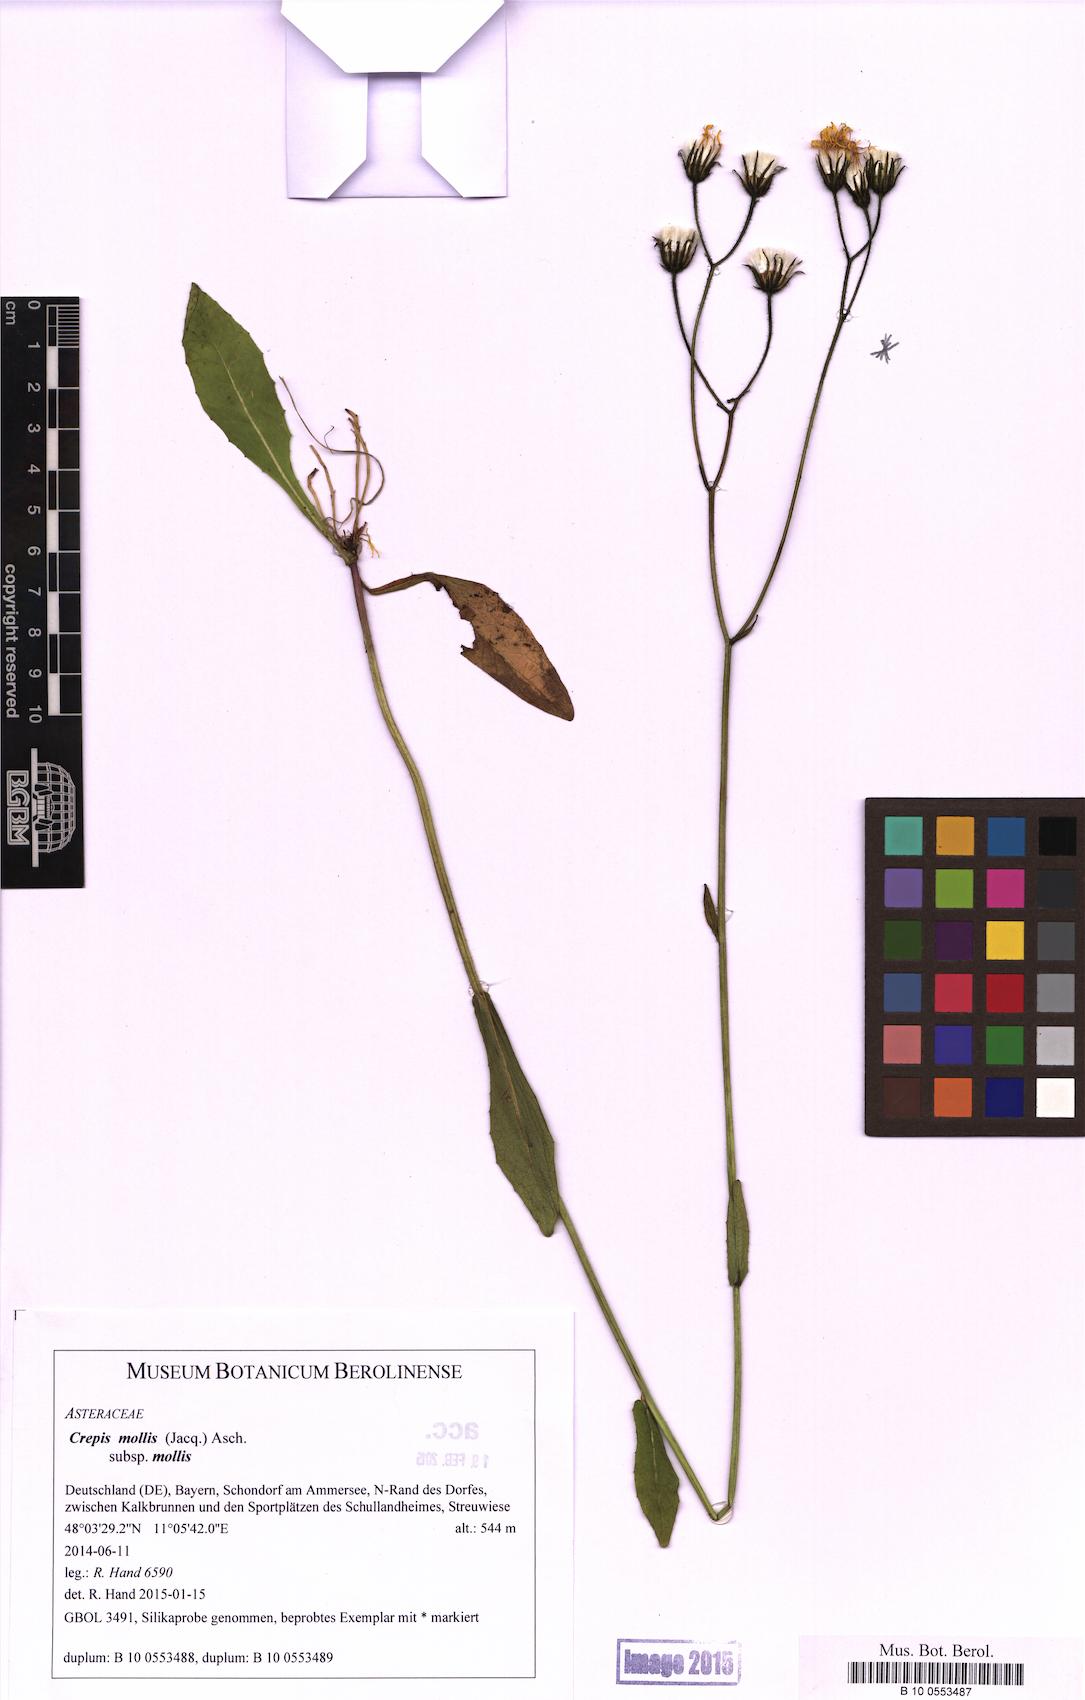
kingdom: Plantae
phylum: Tracheophyta
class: Magnoliopsida
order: Asterales
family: Asteraceae
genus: Crepis
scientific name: Crepis mollis
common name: Northern hawk's-beard
